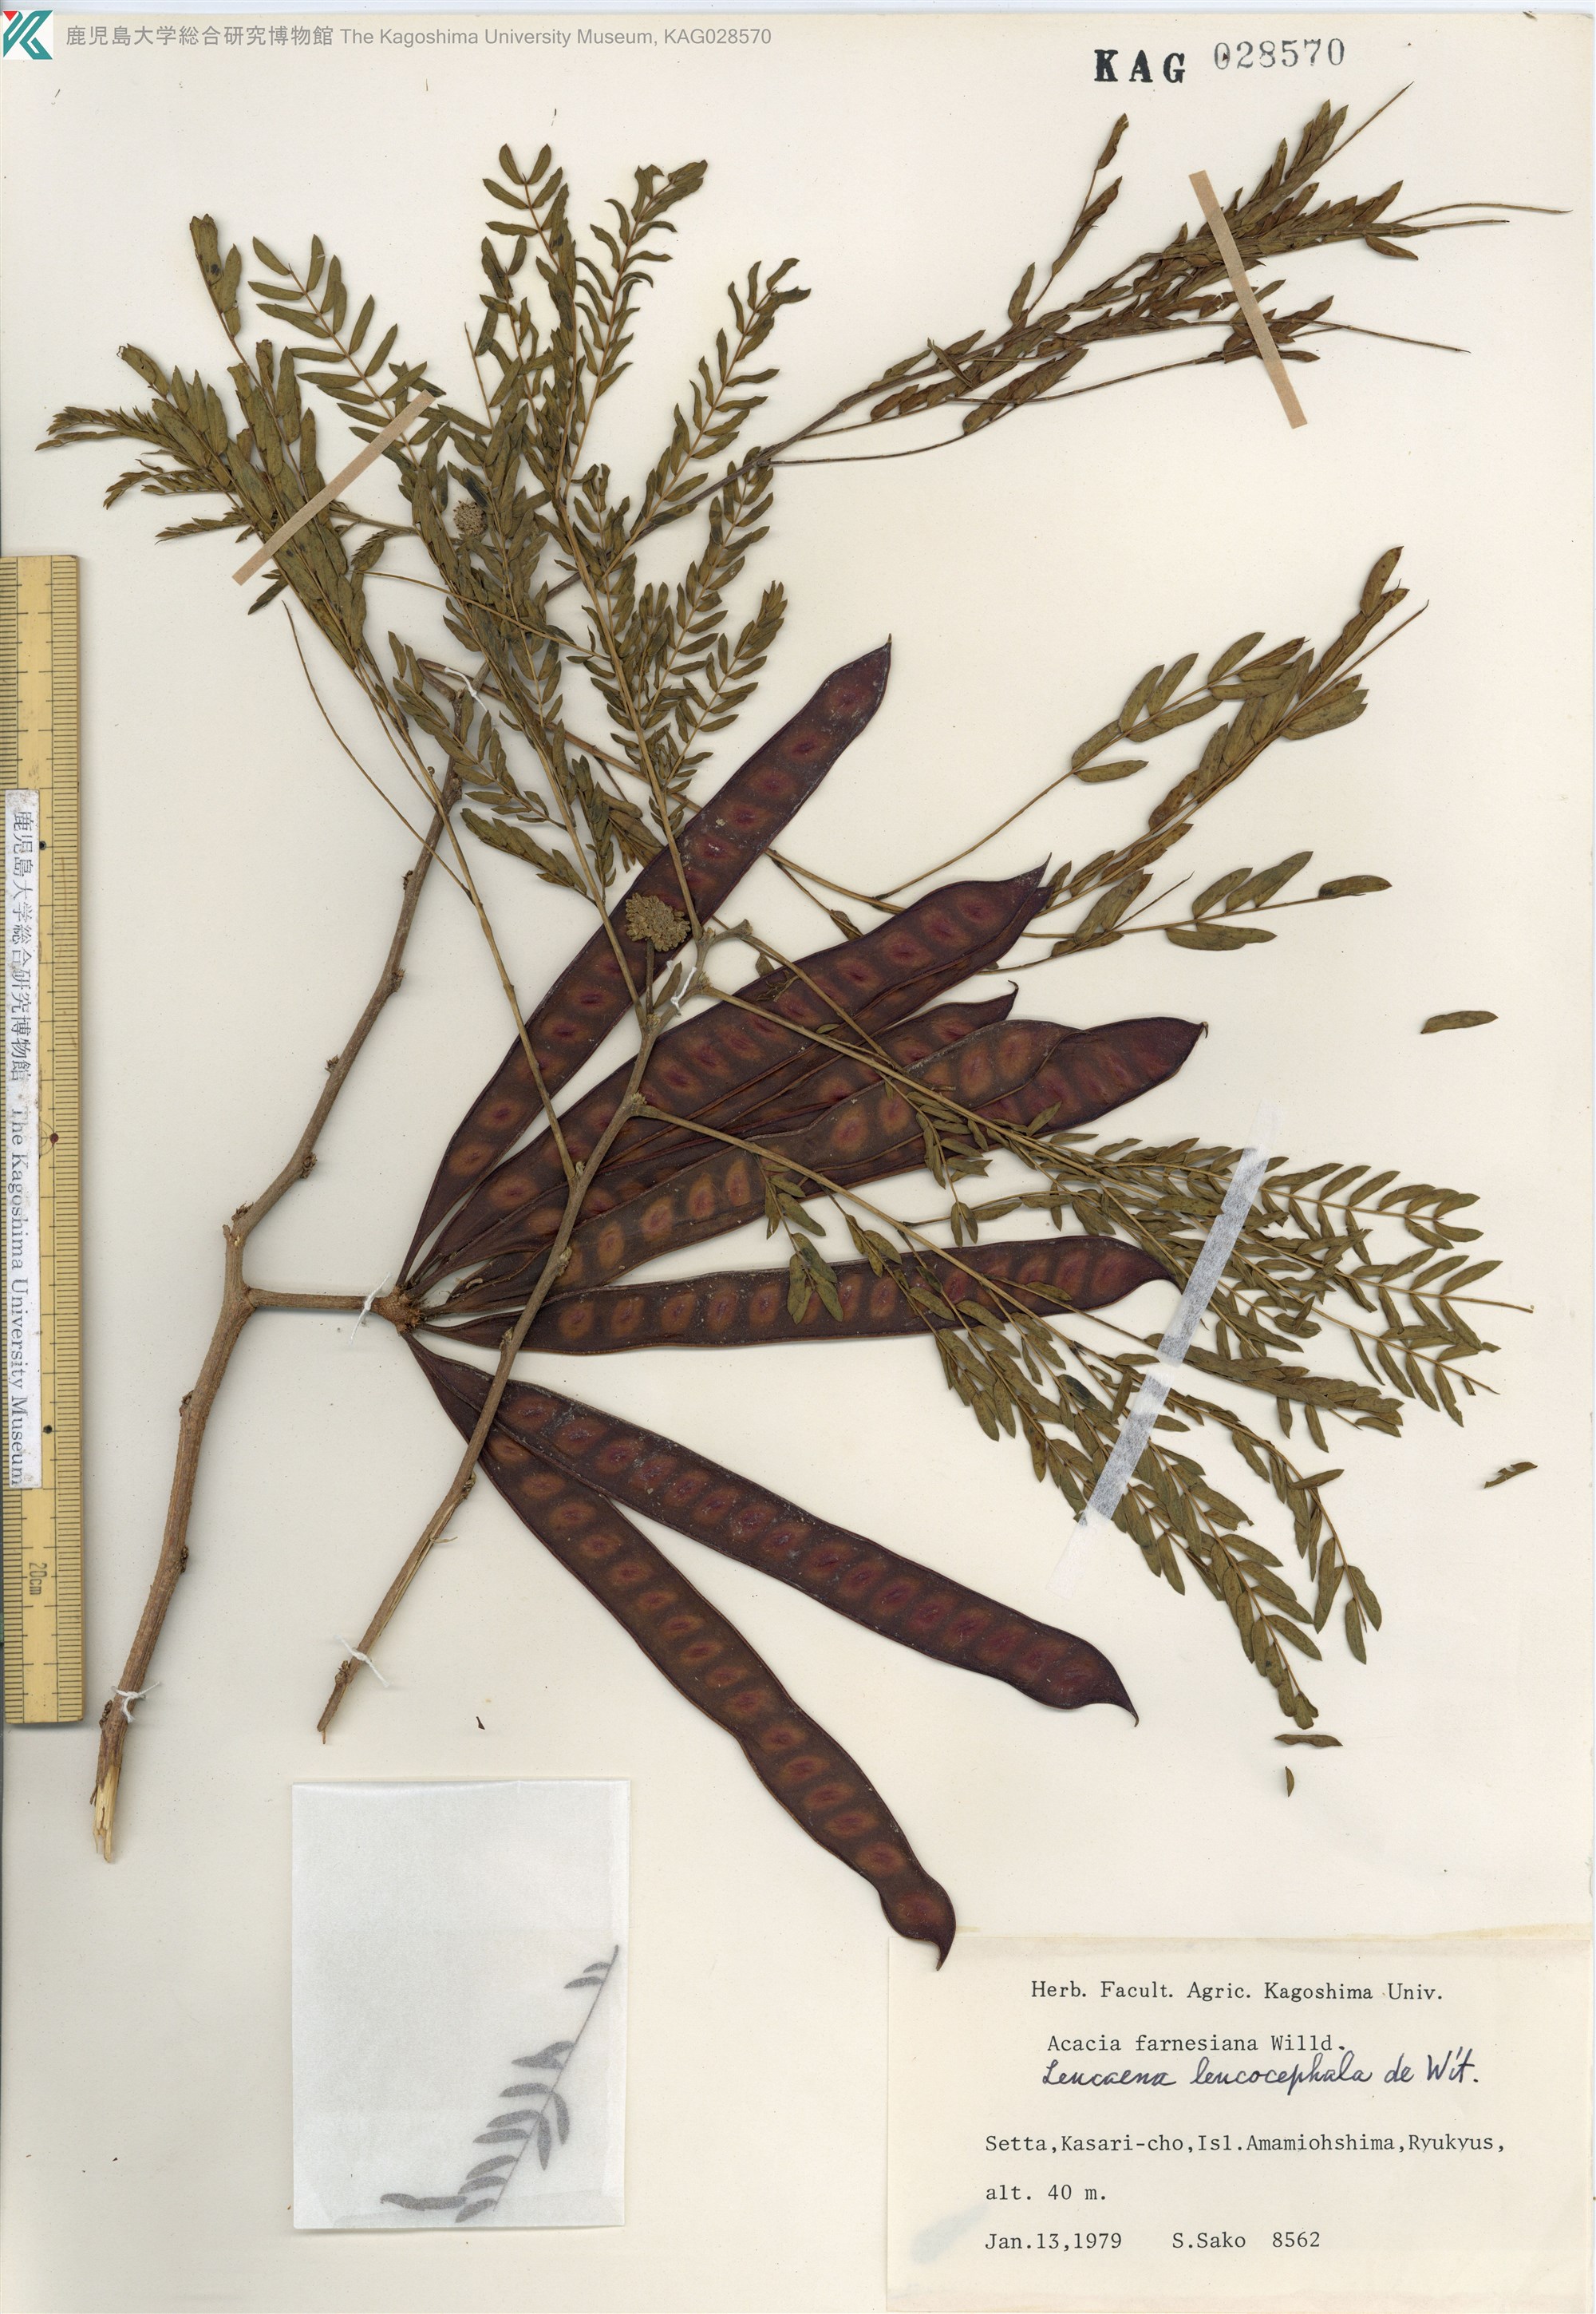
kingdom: Plantae
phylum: Tracheophyta
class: Magnoliopsida
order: Fabales
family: Fabaceae
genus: Leucaena
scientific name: Leucaena leucocephala
